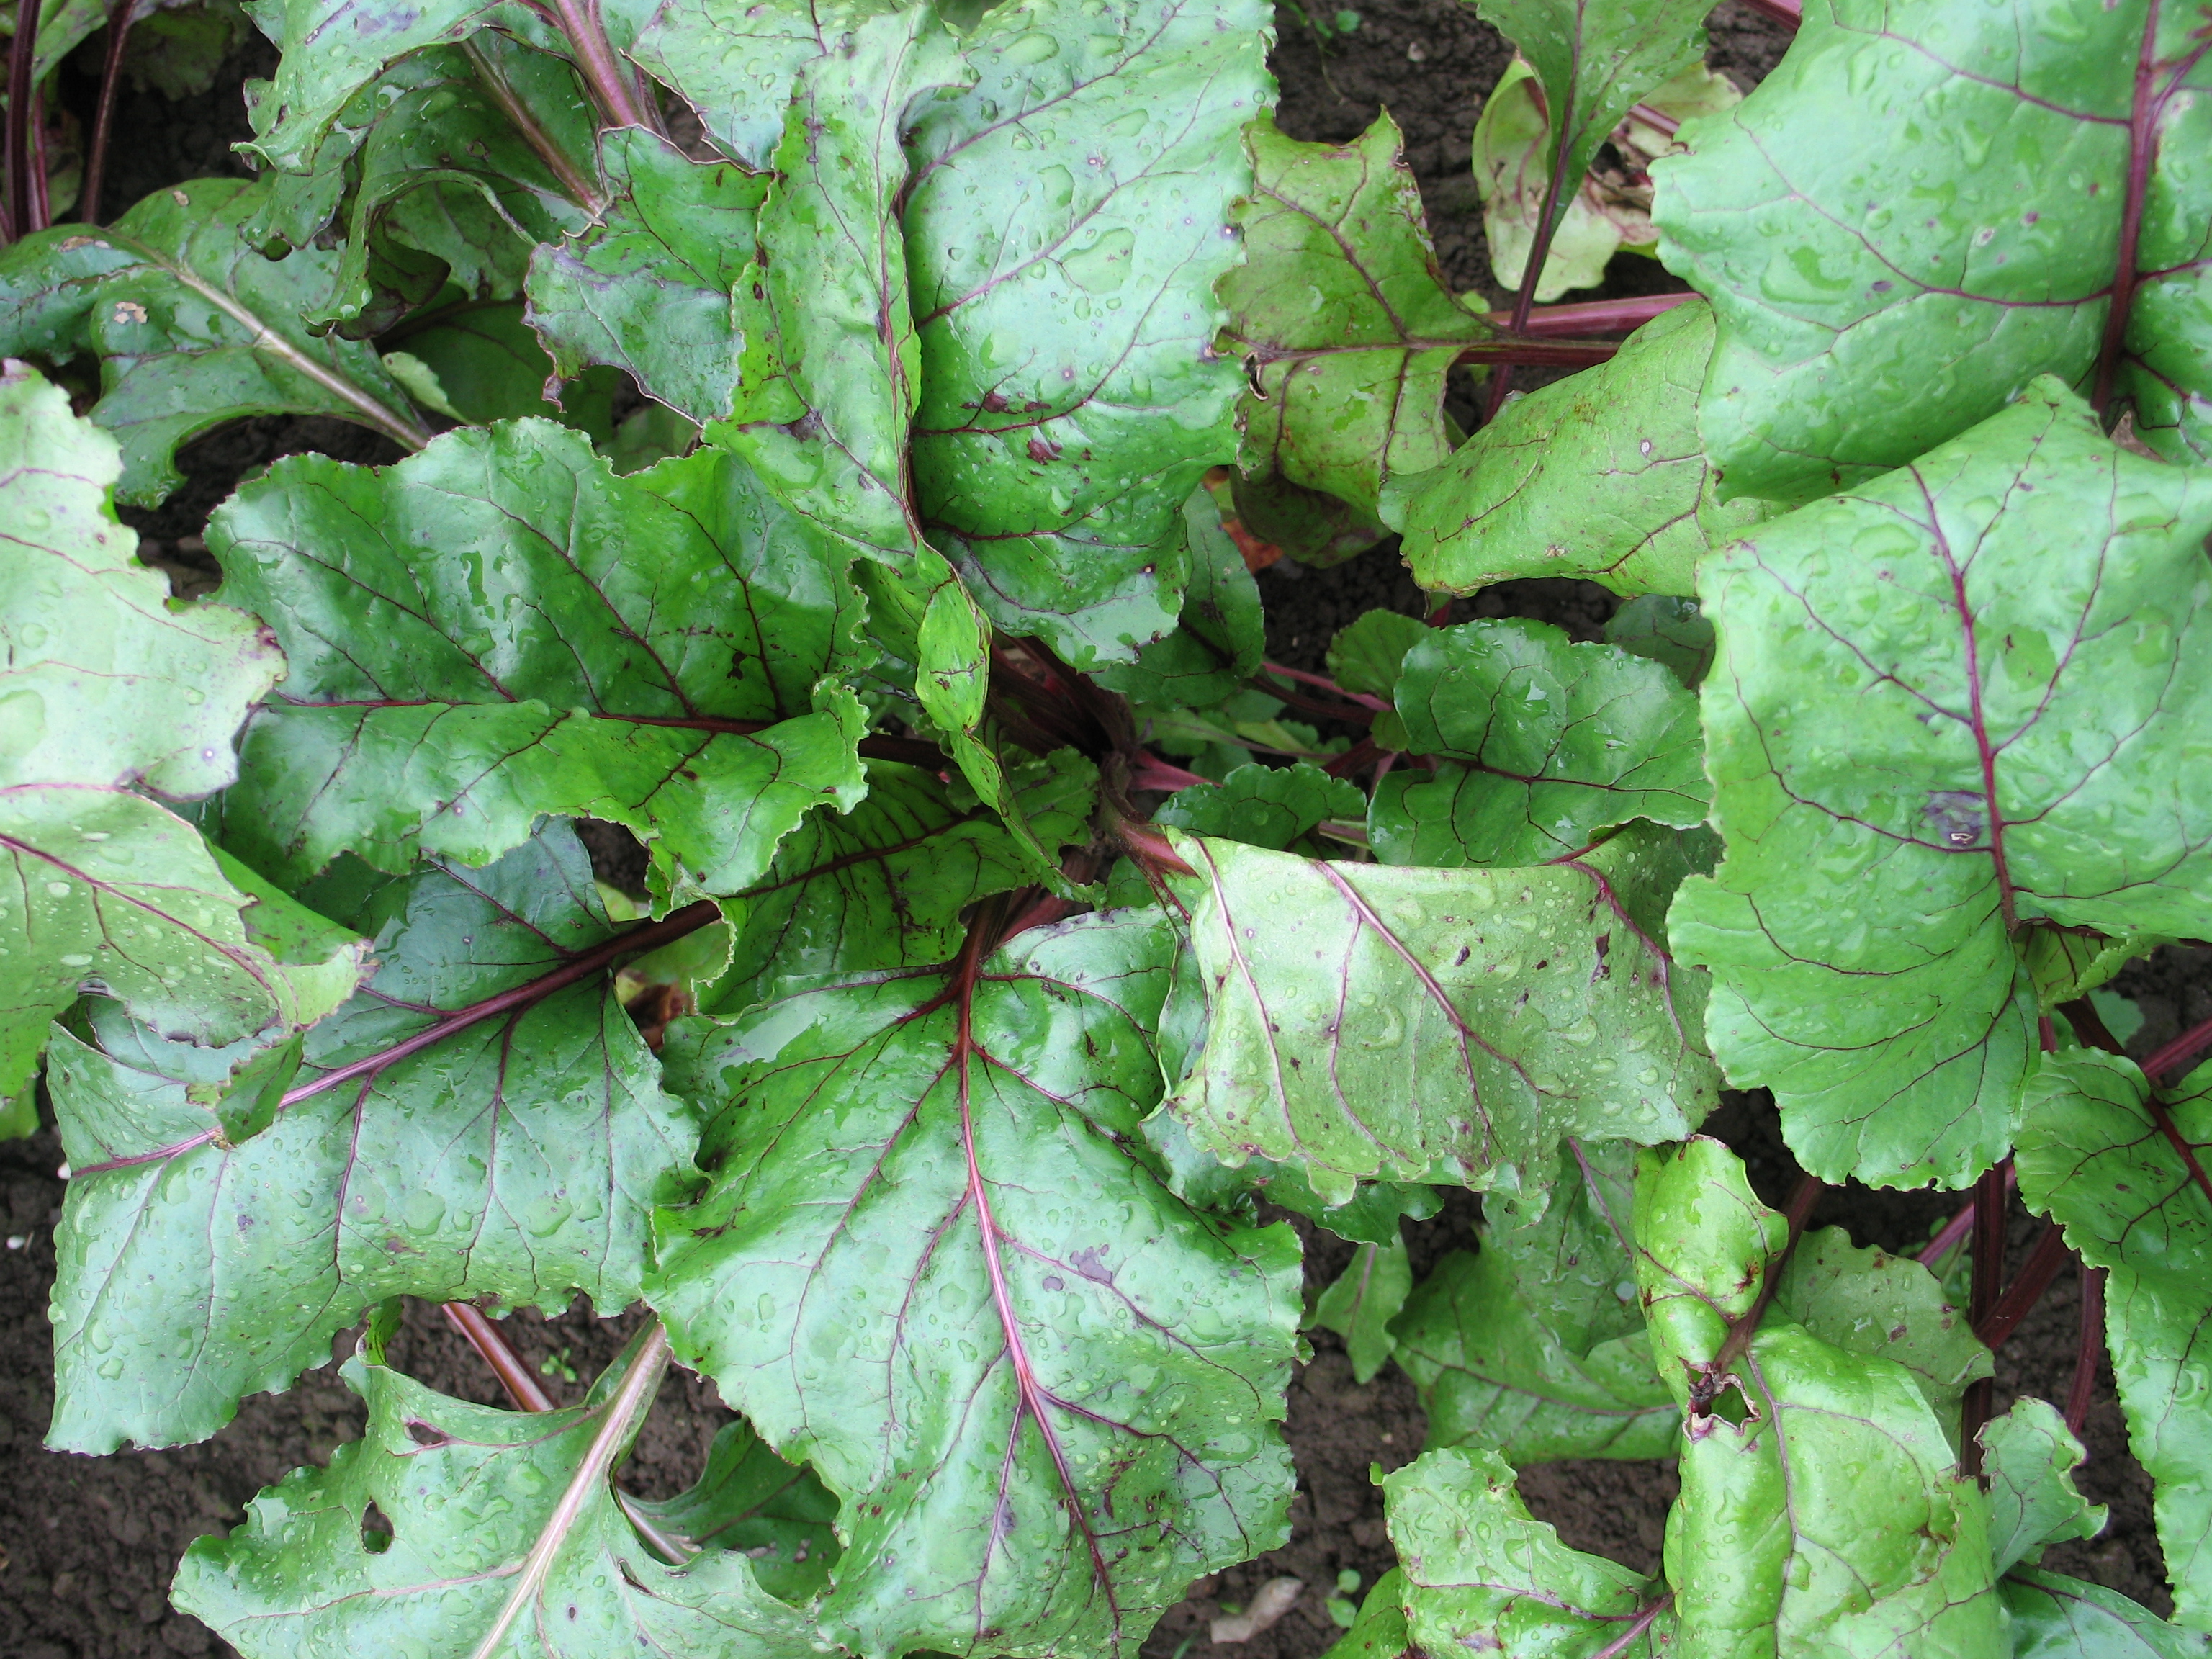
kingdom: Plantae
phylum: Tracheophyta
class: Magnoliopsida
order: Caryophyllales
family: Amaranthaceae
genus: Beta
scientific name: Beta vulgaris
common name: Beet
